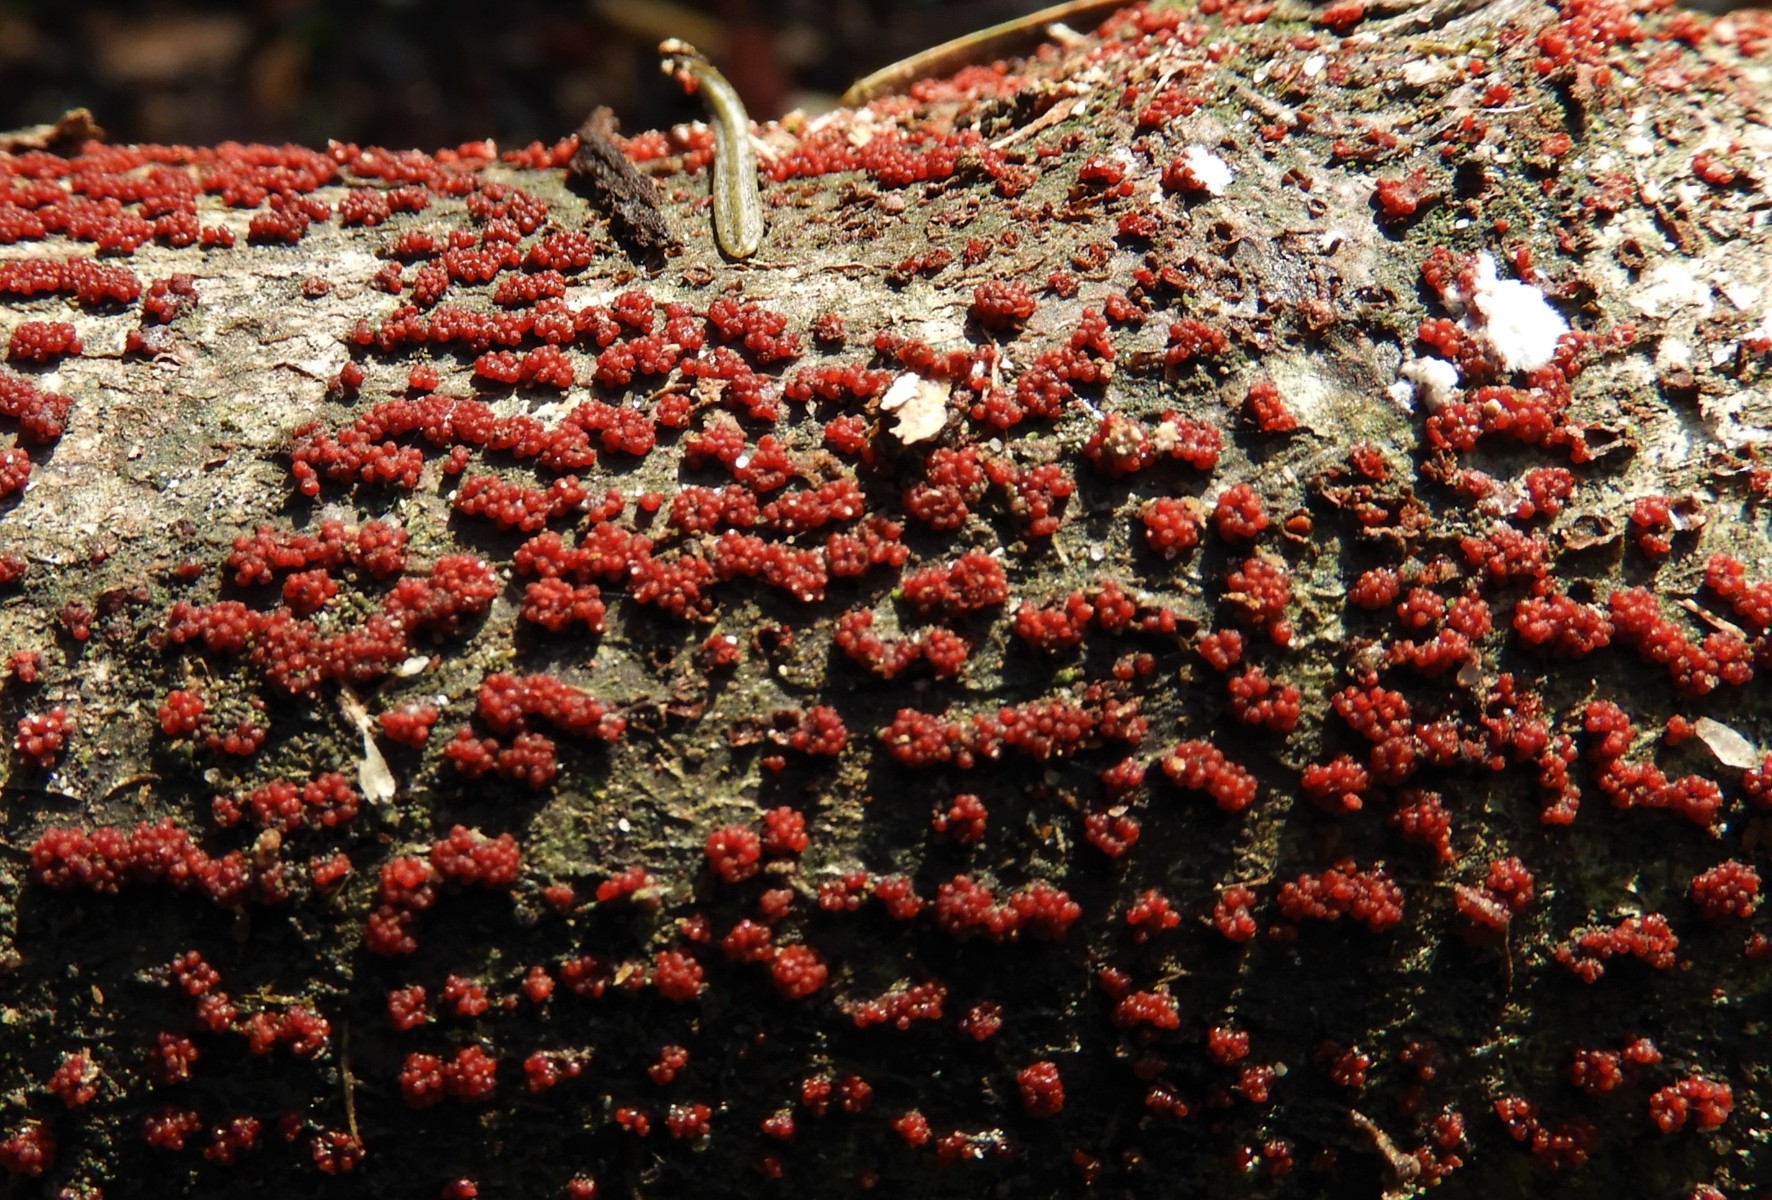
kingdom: Fungi
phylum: Ascomycota
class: Sordariomycetes
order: Hypocreales
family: Nectriaceae
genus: Nectria
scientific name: Nectria cinnabarina
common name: almindelig cinnobersvamp
